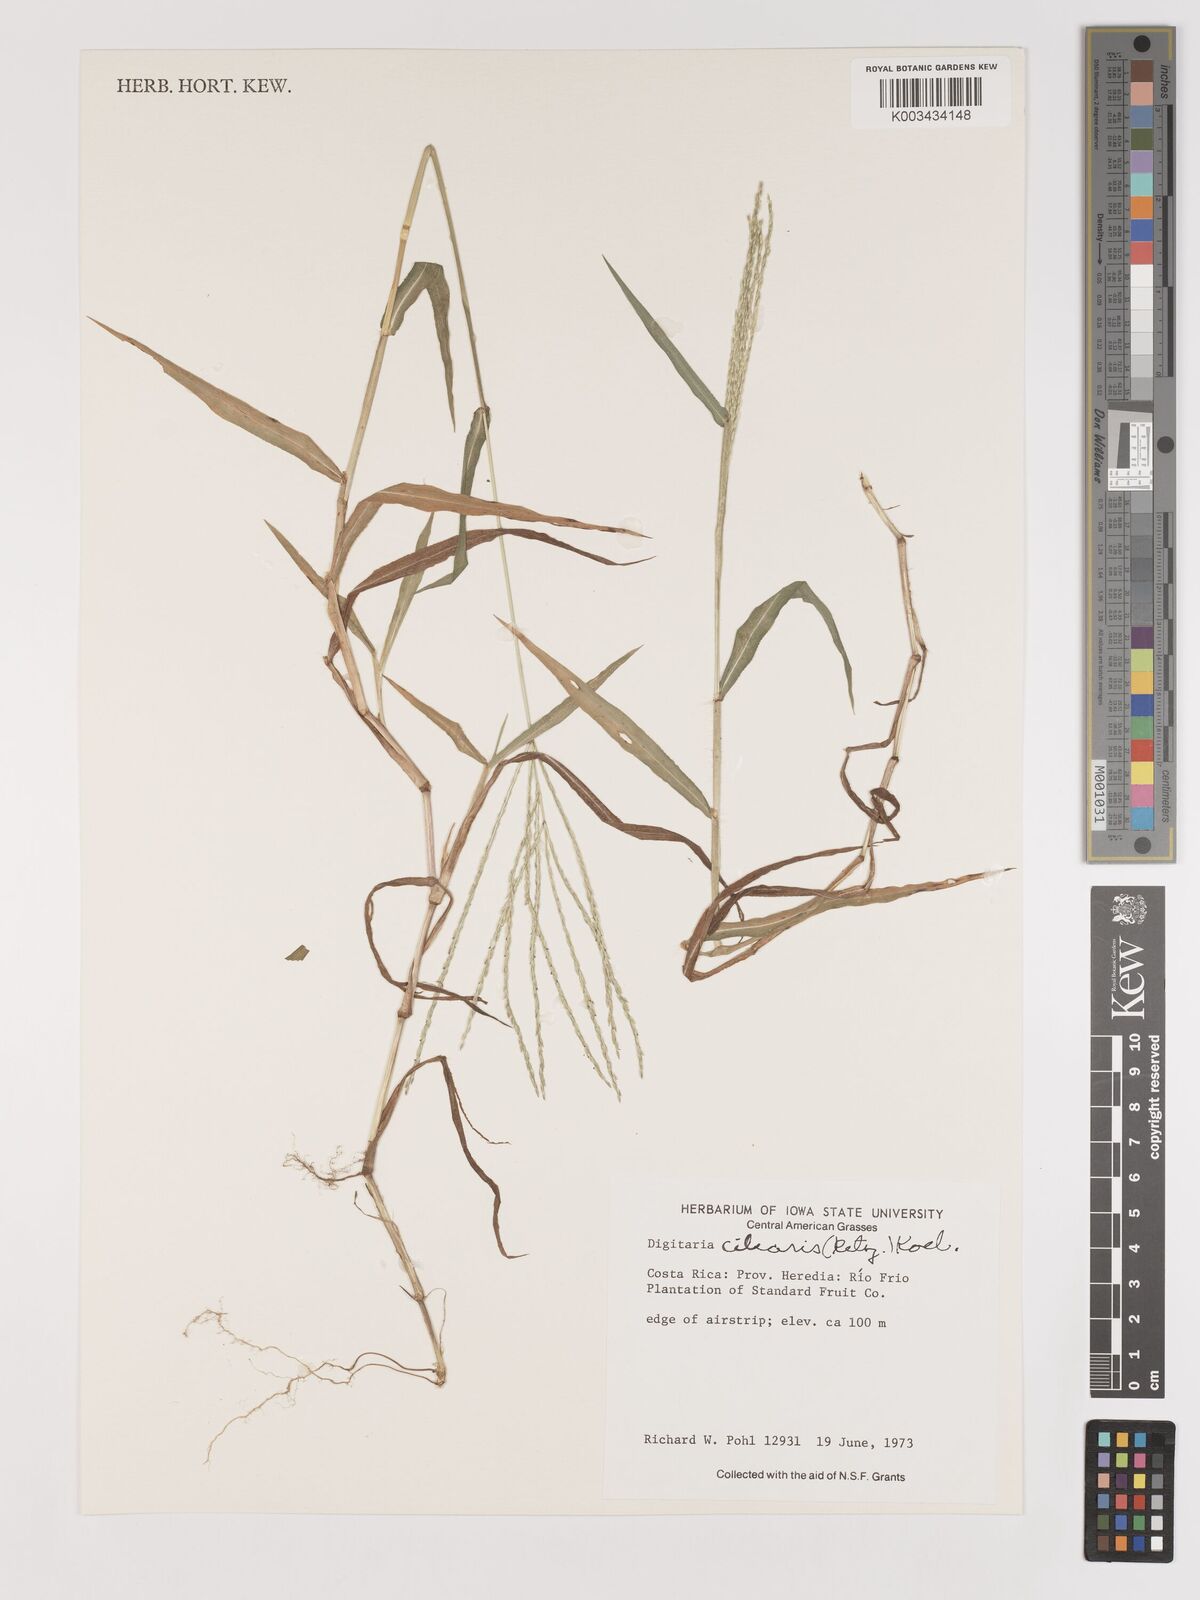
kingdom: Plantae
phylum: Tracheophyta
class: Liliopsida
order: Poales
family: Poaceae
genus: Digitaria
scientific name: Digitaria ciliaris
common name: Tropical finger-grass
